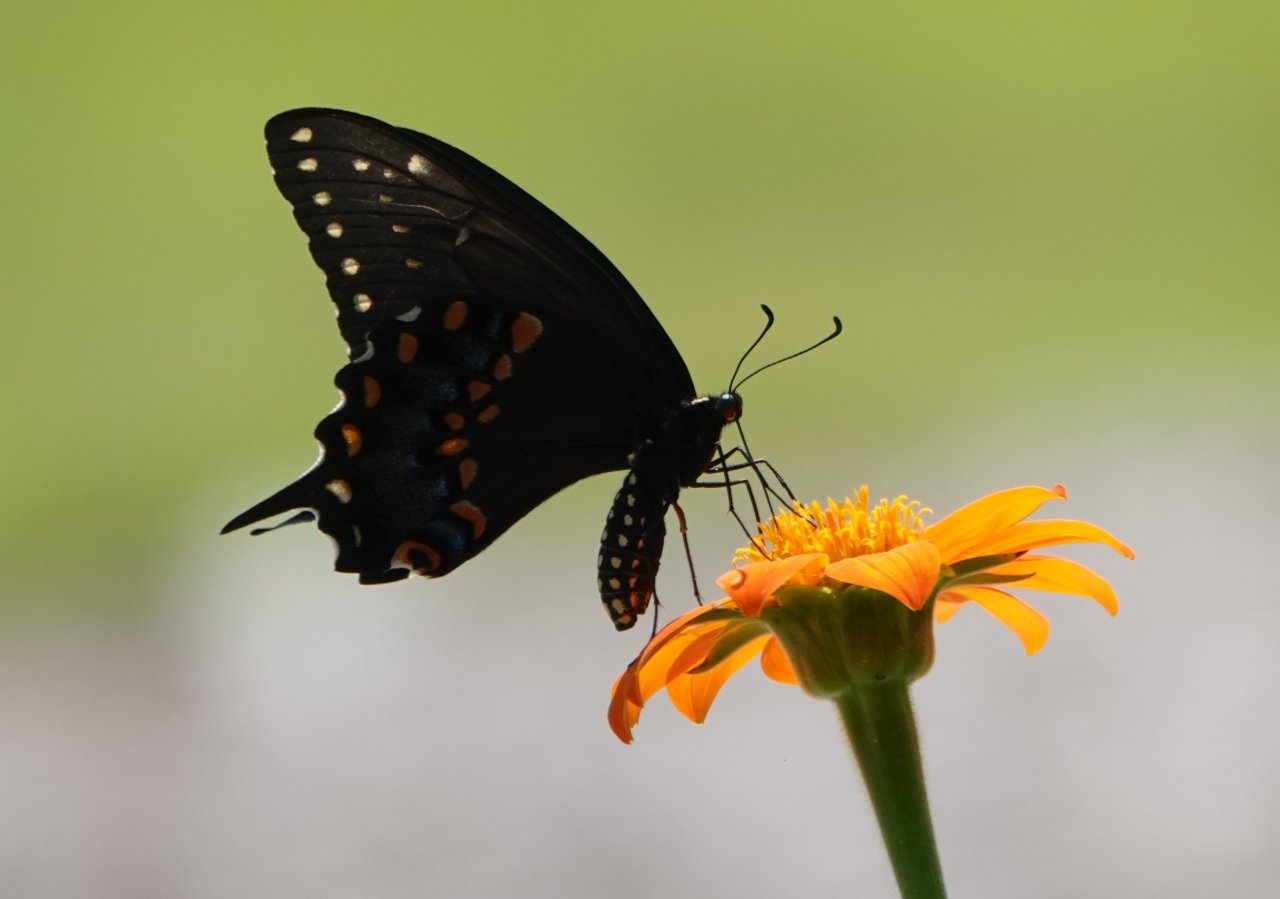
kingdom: Animalia
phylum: Arthropoda
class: Insecta
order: Lepidoptera
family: Papilionidae
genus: Papilio
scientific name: Papilio polyxenes
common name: Black Swallowtail
